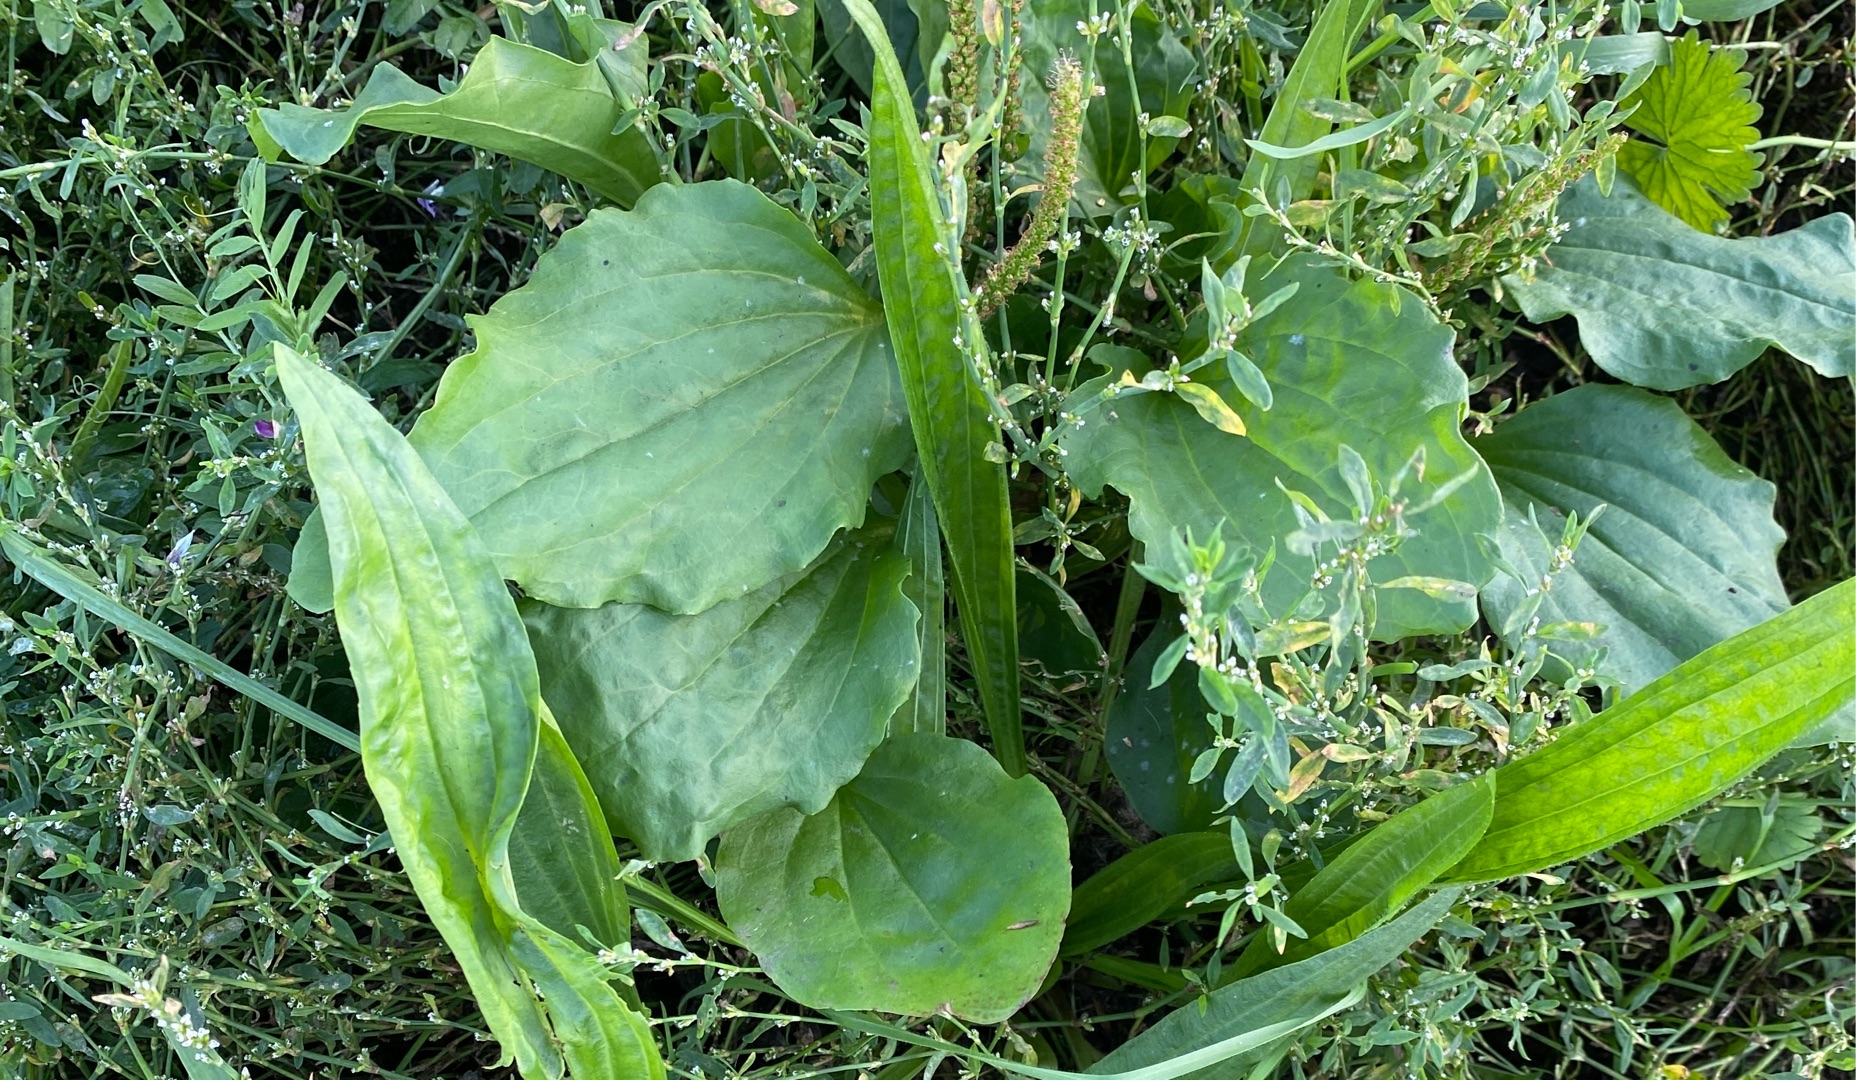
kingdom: Plantae
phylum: Tracheophyta
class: Magnoliopsida
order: Lamiales
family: Plantaginaceae
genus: Plantago
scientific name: Plantago major
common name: Glat vejbred
